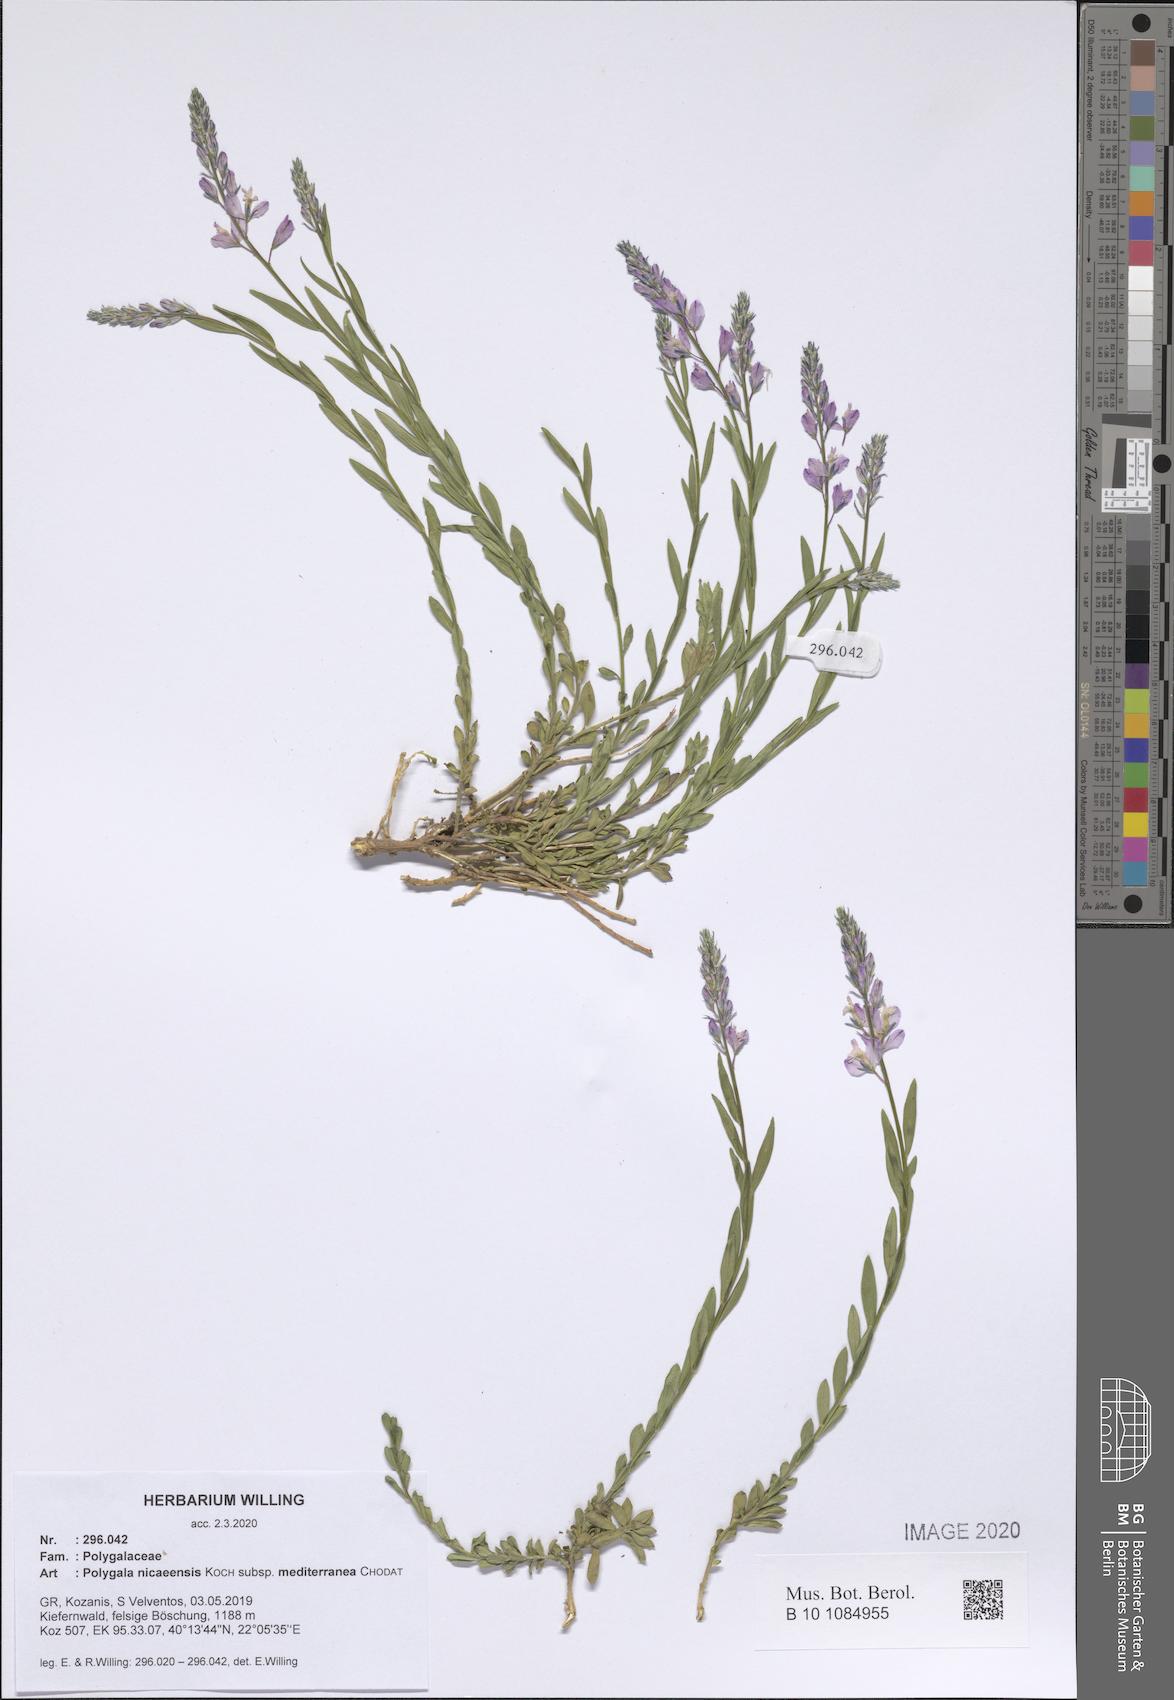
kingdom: Plantae
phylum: Tracheophyta
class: Magnoliopsida
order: Fabales
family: Polygalaceae
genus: Polygala
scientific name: Polygala nicaeensis
